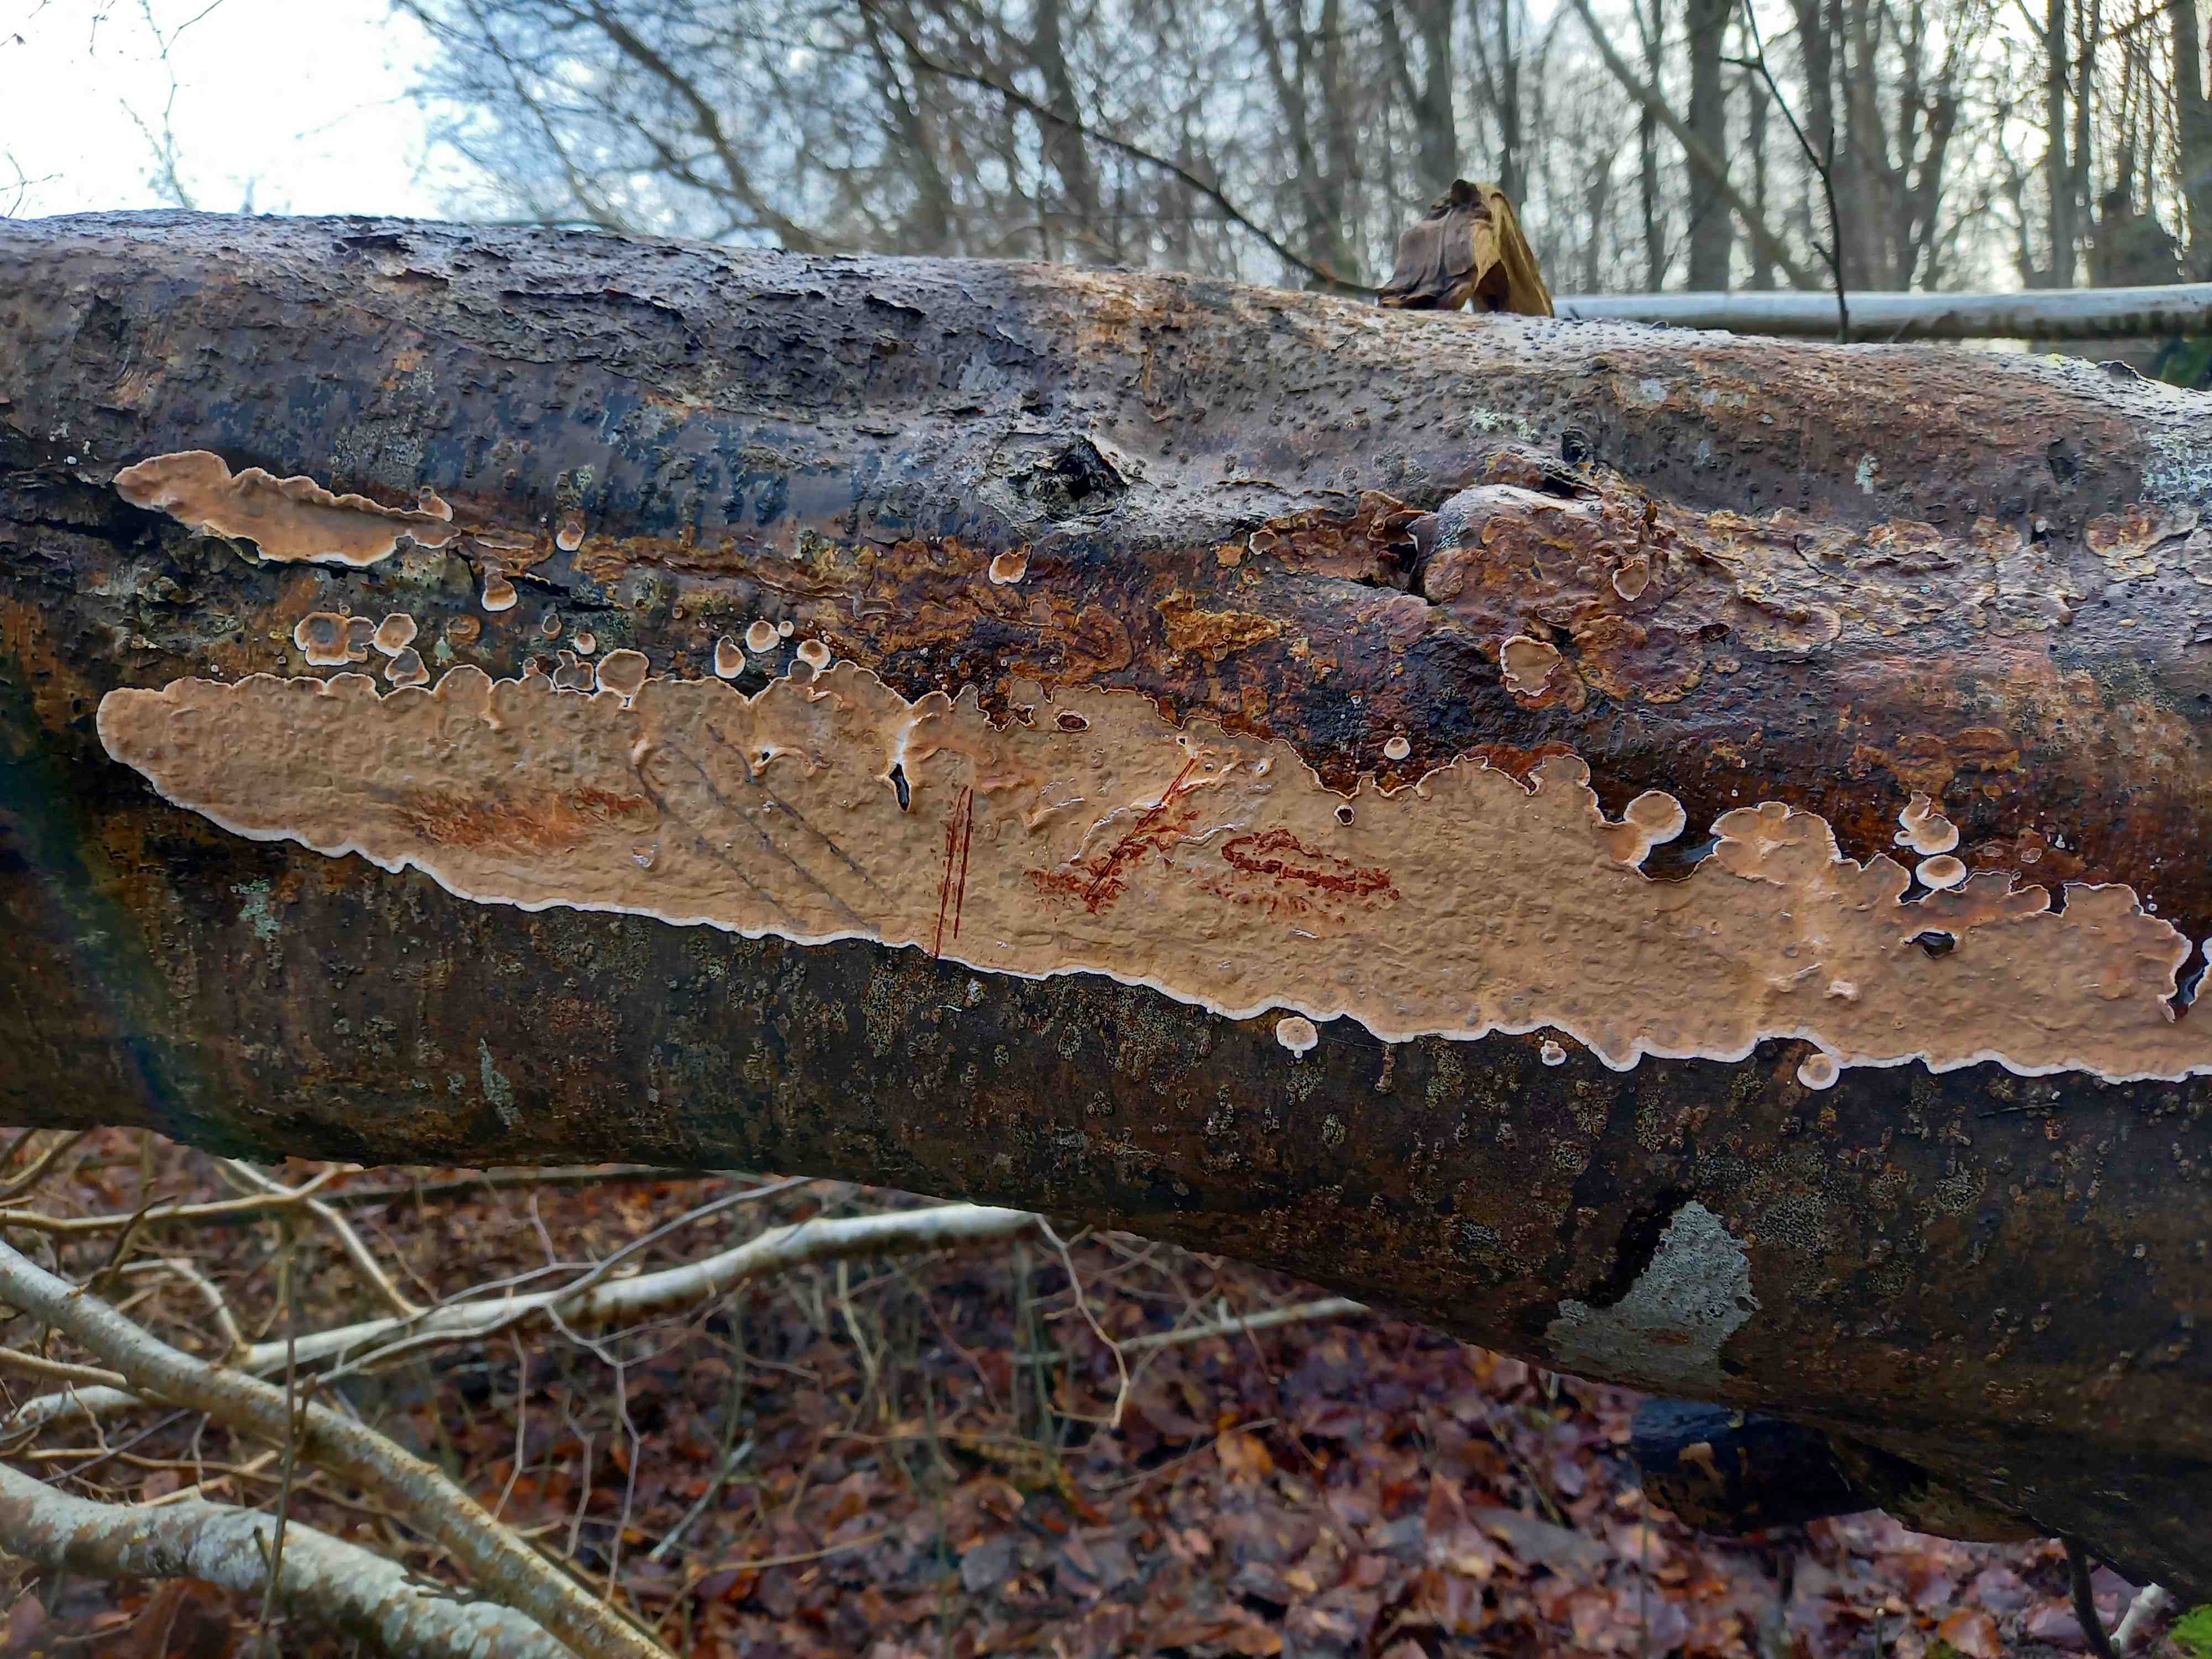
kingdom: Fungi
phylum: Basidiomycota
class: Agaricomycetes
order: Russulales
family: Stereaceae
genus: Stereum
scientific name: Stereum rugosum
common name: rynket lædersvamp
